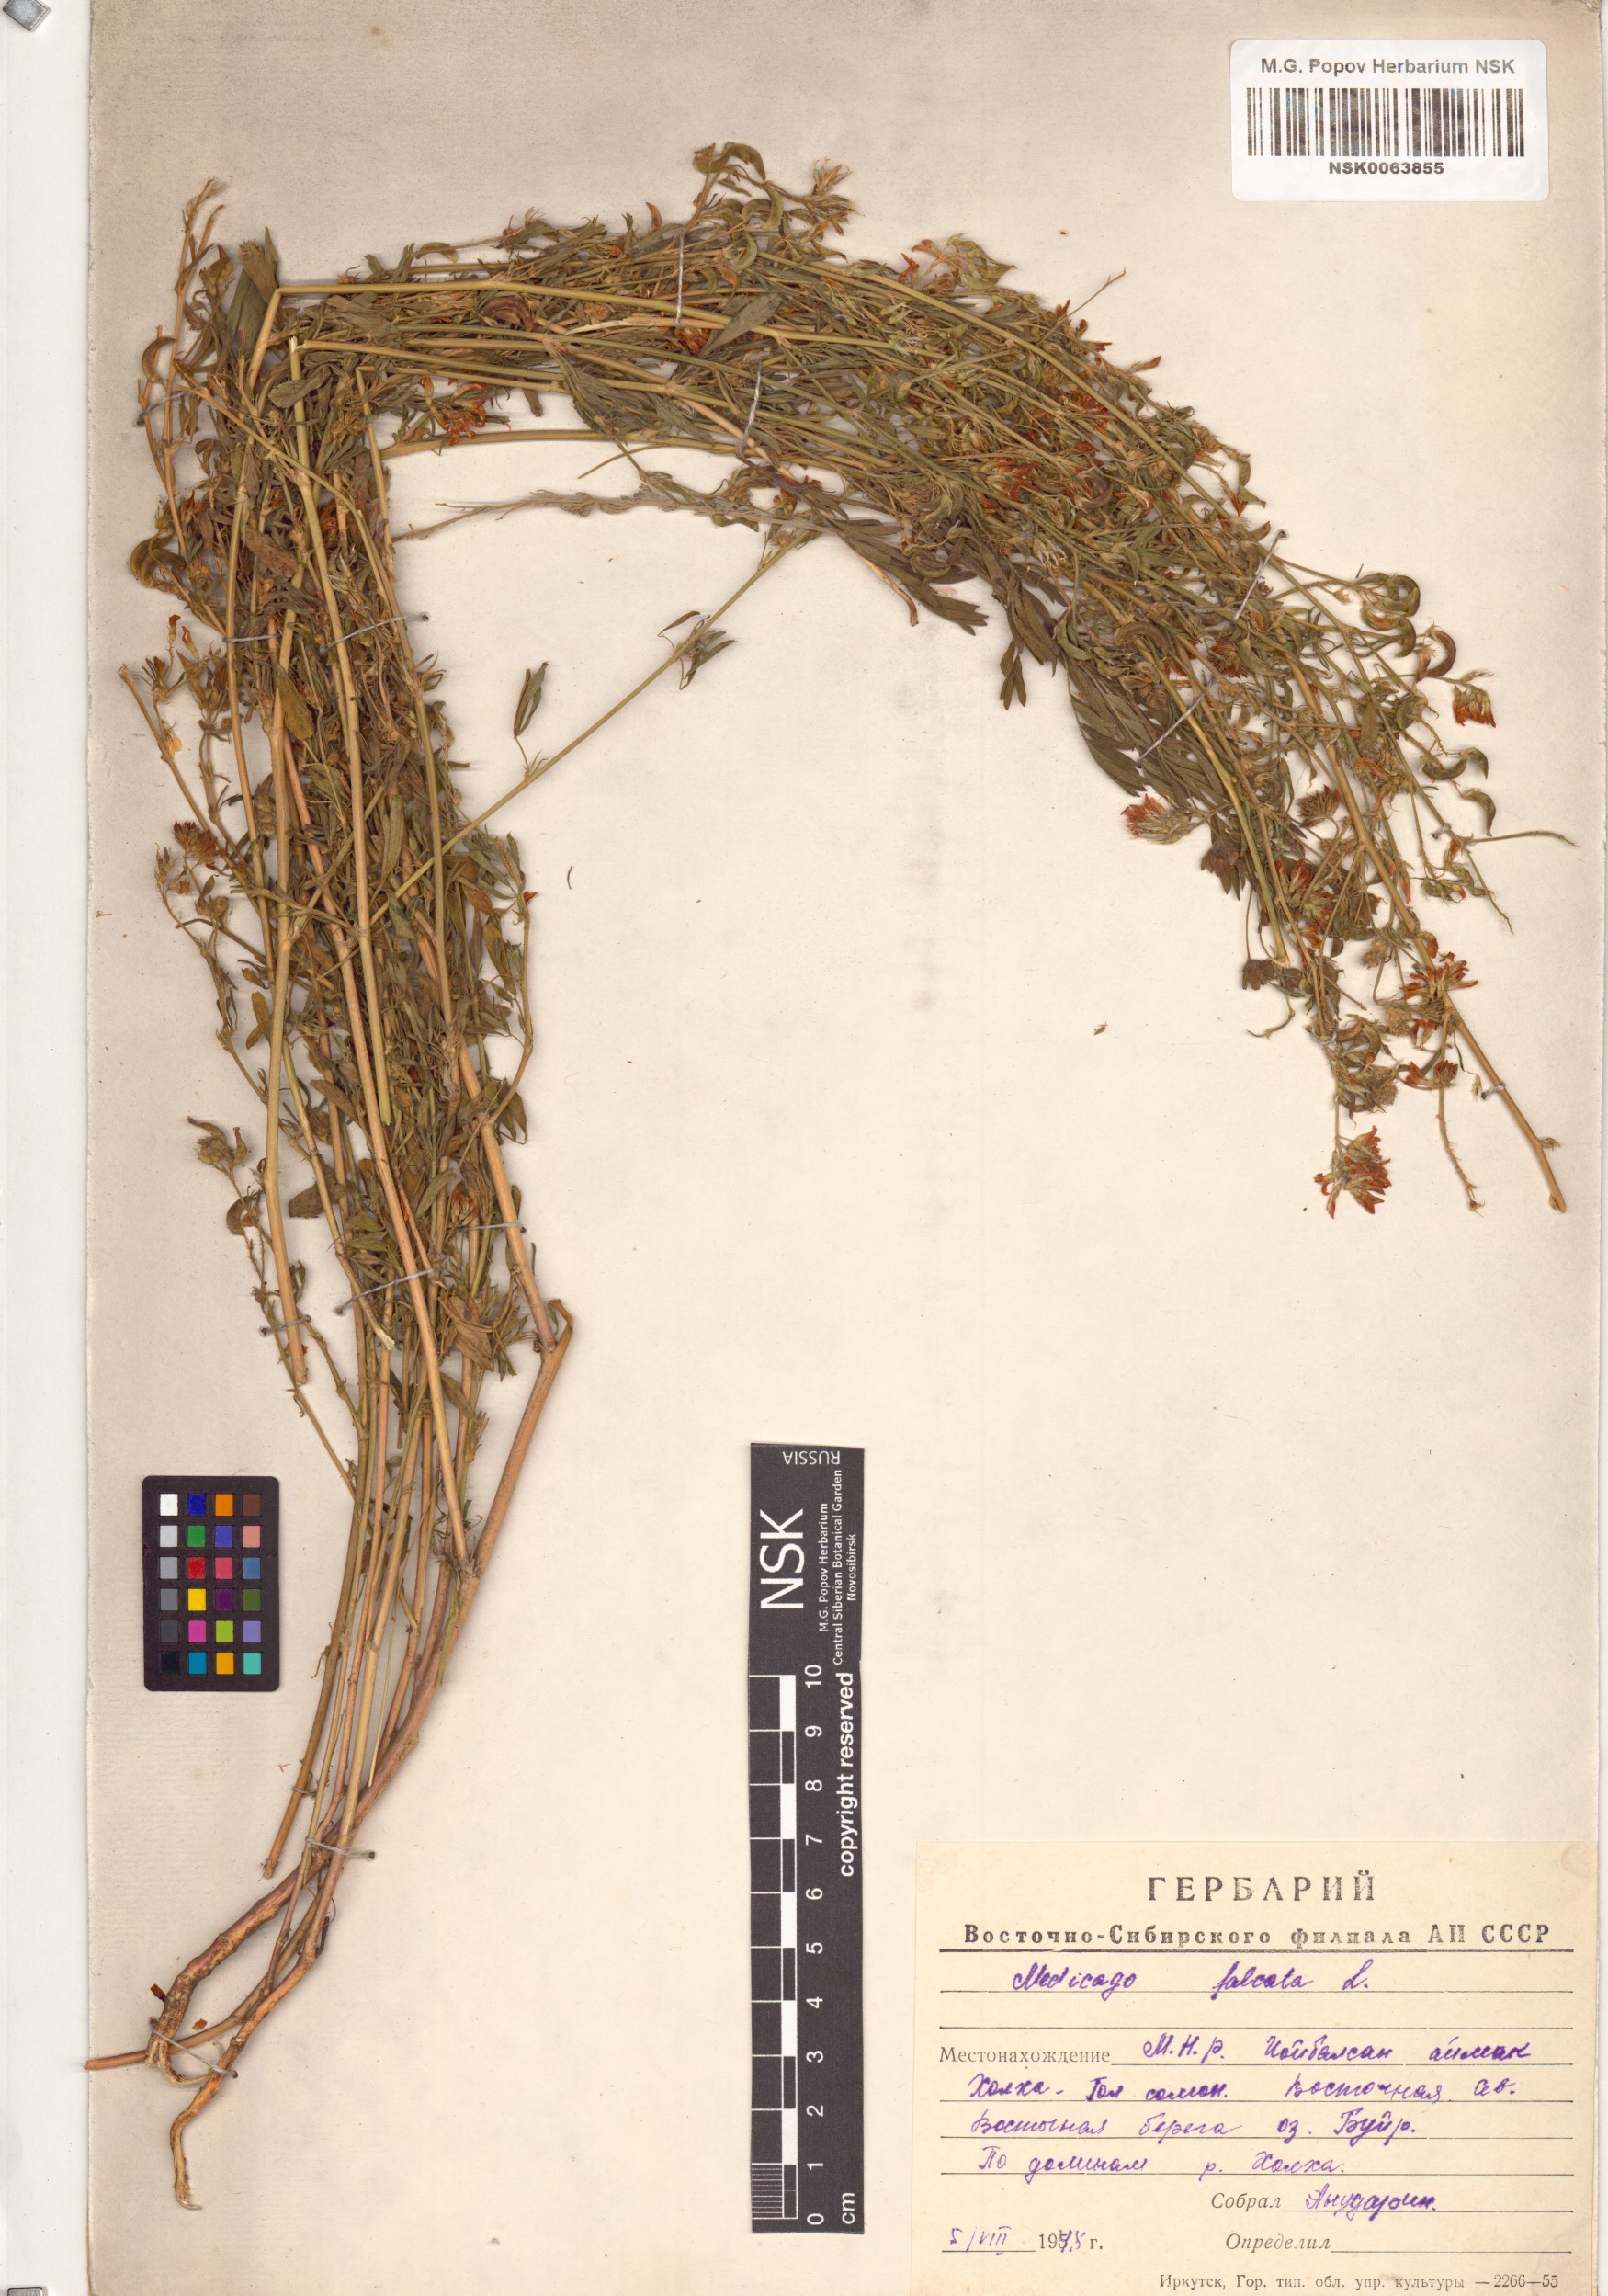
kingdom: Plantae
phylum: Tracheophyta
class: Magnoliopsida
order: Fabales
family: Fabaceae
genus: Medicago
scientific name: Medicago falcata
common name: Sickle medick
